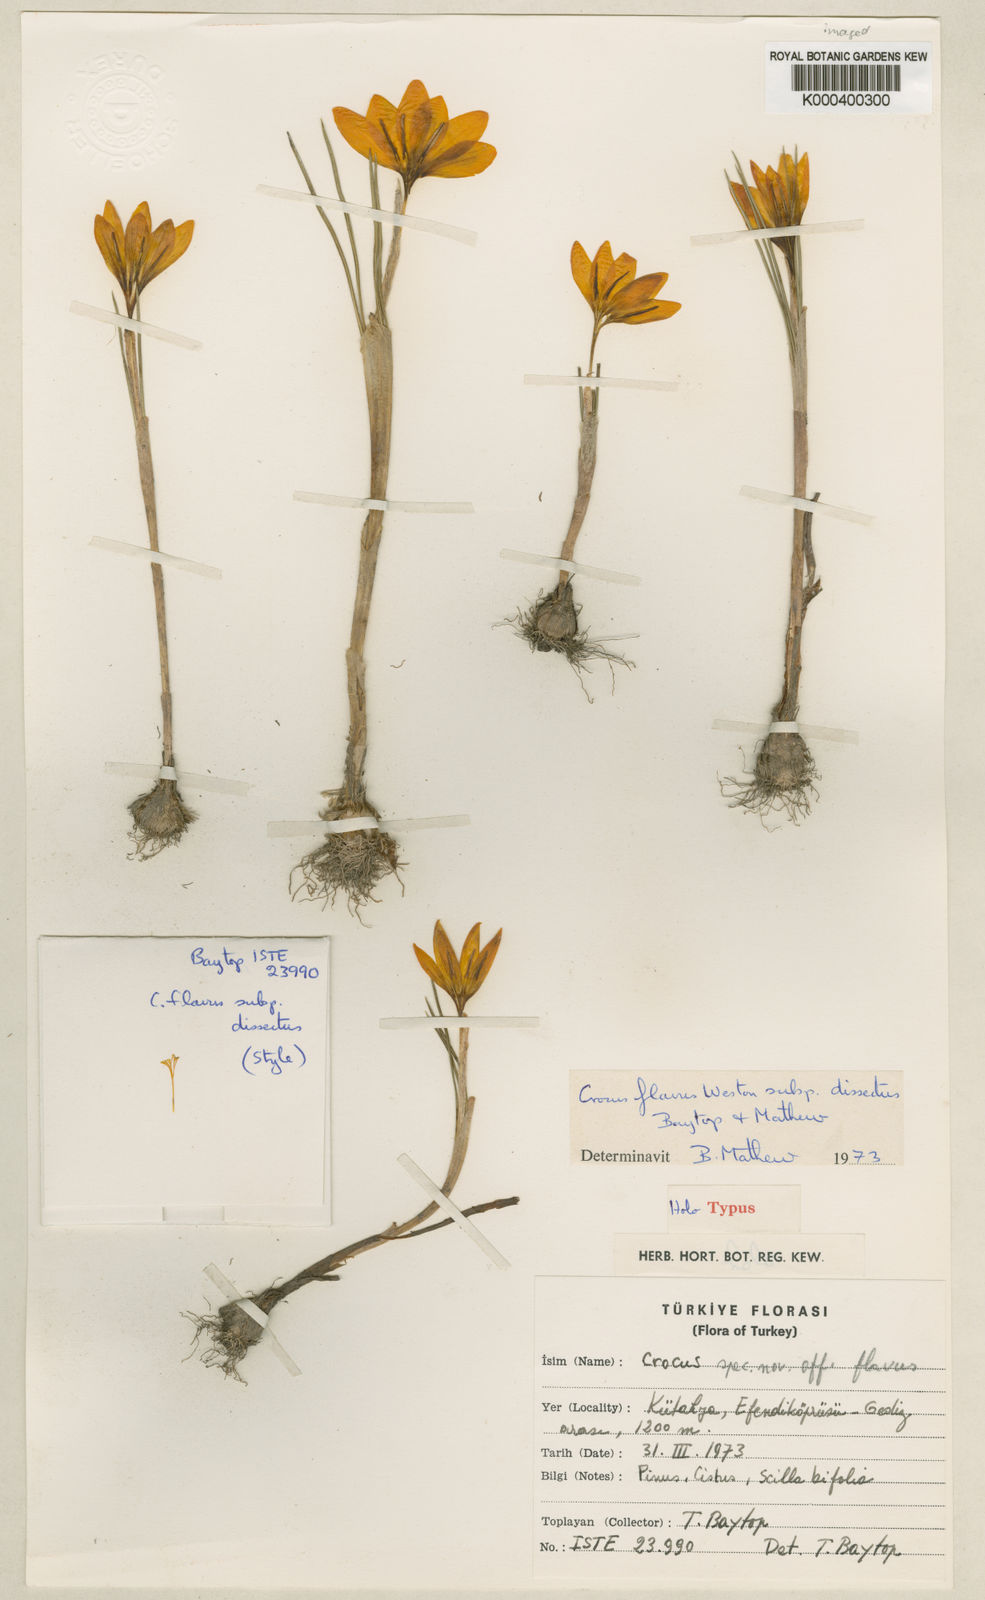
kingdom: Plantae
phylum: Tracheophyta
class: Liliopsida
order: Asparagales
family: Iridaceae
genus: Crocus
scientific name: Crocus mouradi
